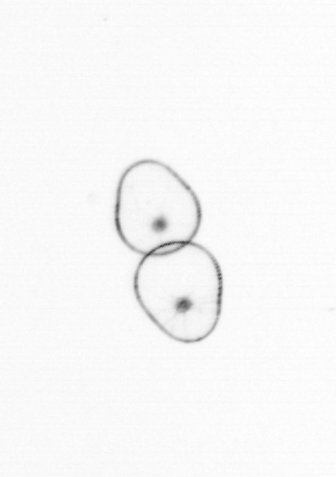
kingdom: Chromista
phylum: Myzozoa
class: Dinophyceae
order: Noctilucales
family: Noctilucaceae
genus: Noctiluca
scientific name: Noctiluca scintillans
